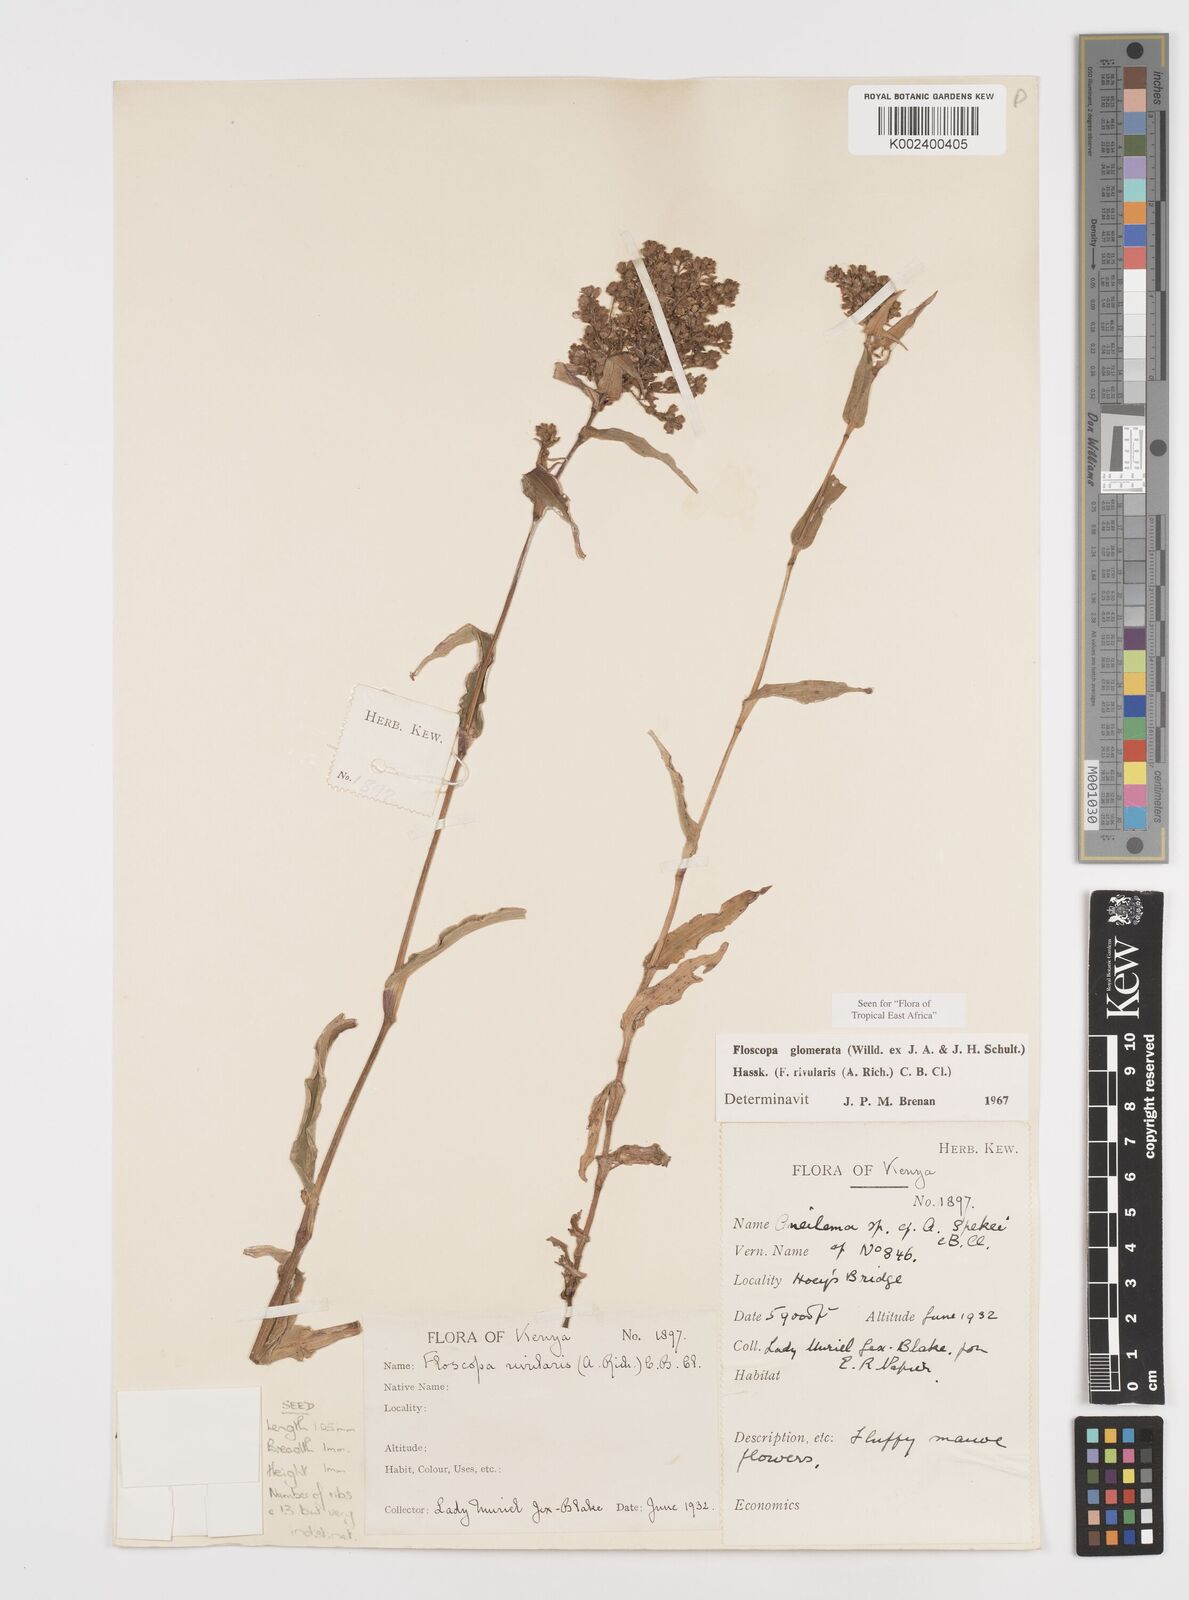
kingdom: Plantae
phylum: Tracheophyta
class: Liliopsida
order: Commelinales
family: Commelinaceae
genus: Floscopa
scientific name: Floscopa glomerata
